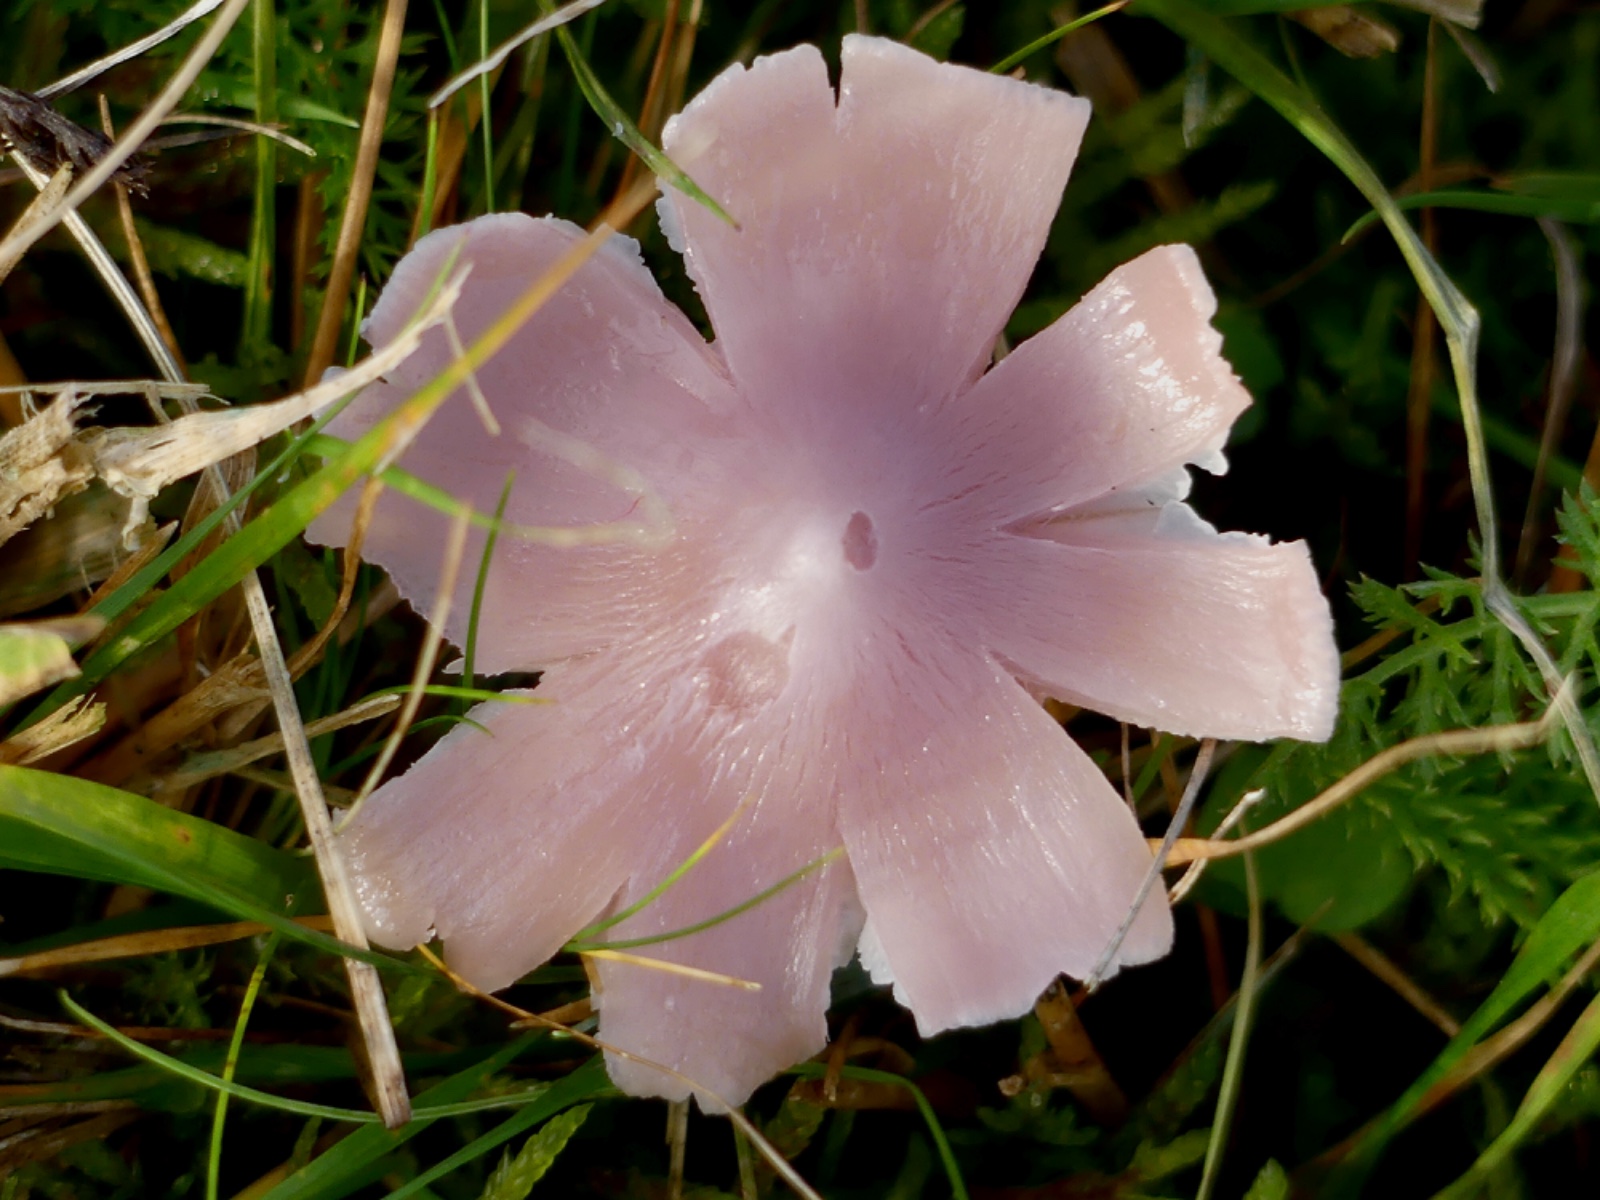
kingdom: Fungi
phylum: Basidiomycota
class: Agaricomycetes
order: Agaricales
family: Hygrophoraceae
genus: Porpolomopsis
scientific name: Porpolomopsis calyptriformis
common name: rosenrød vokshat
